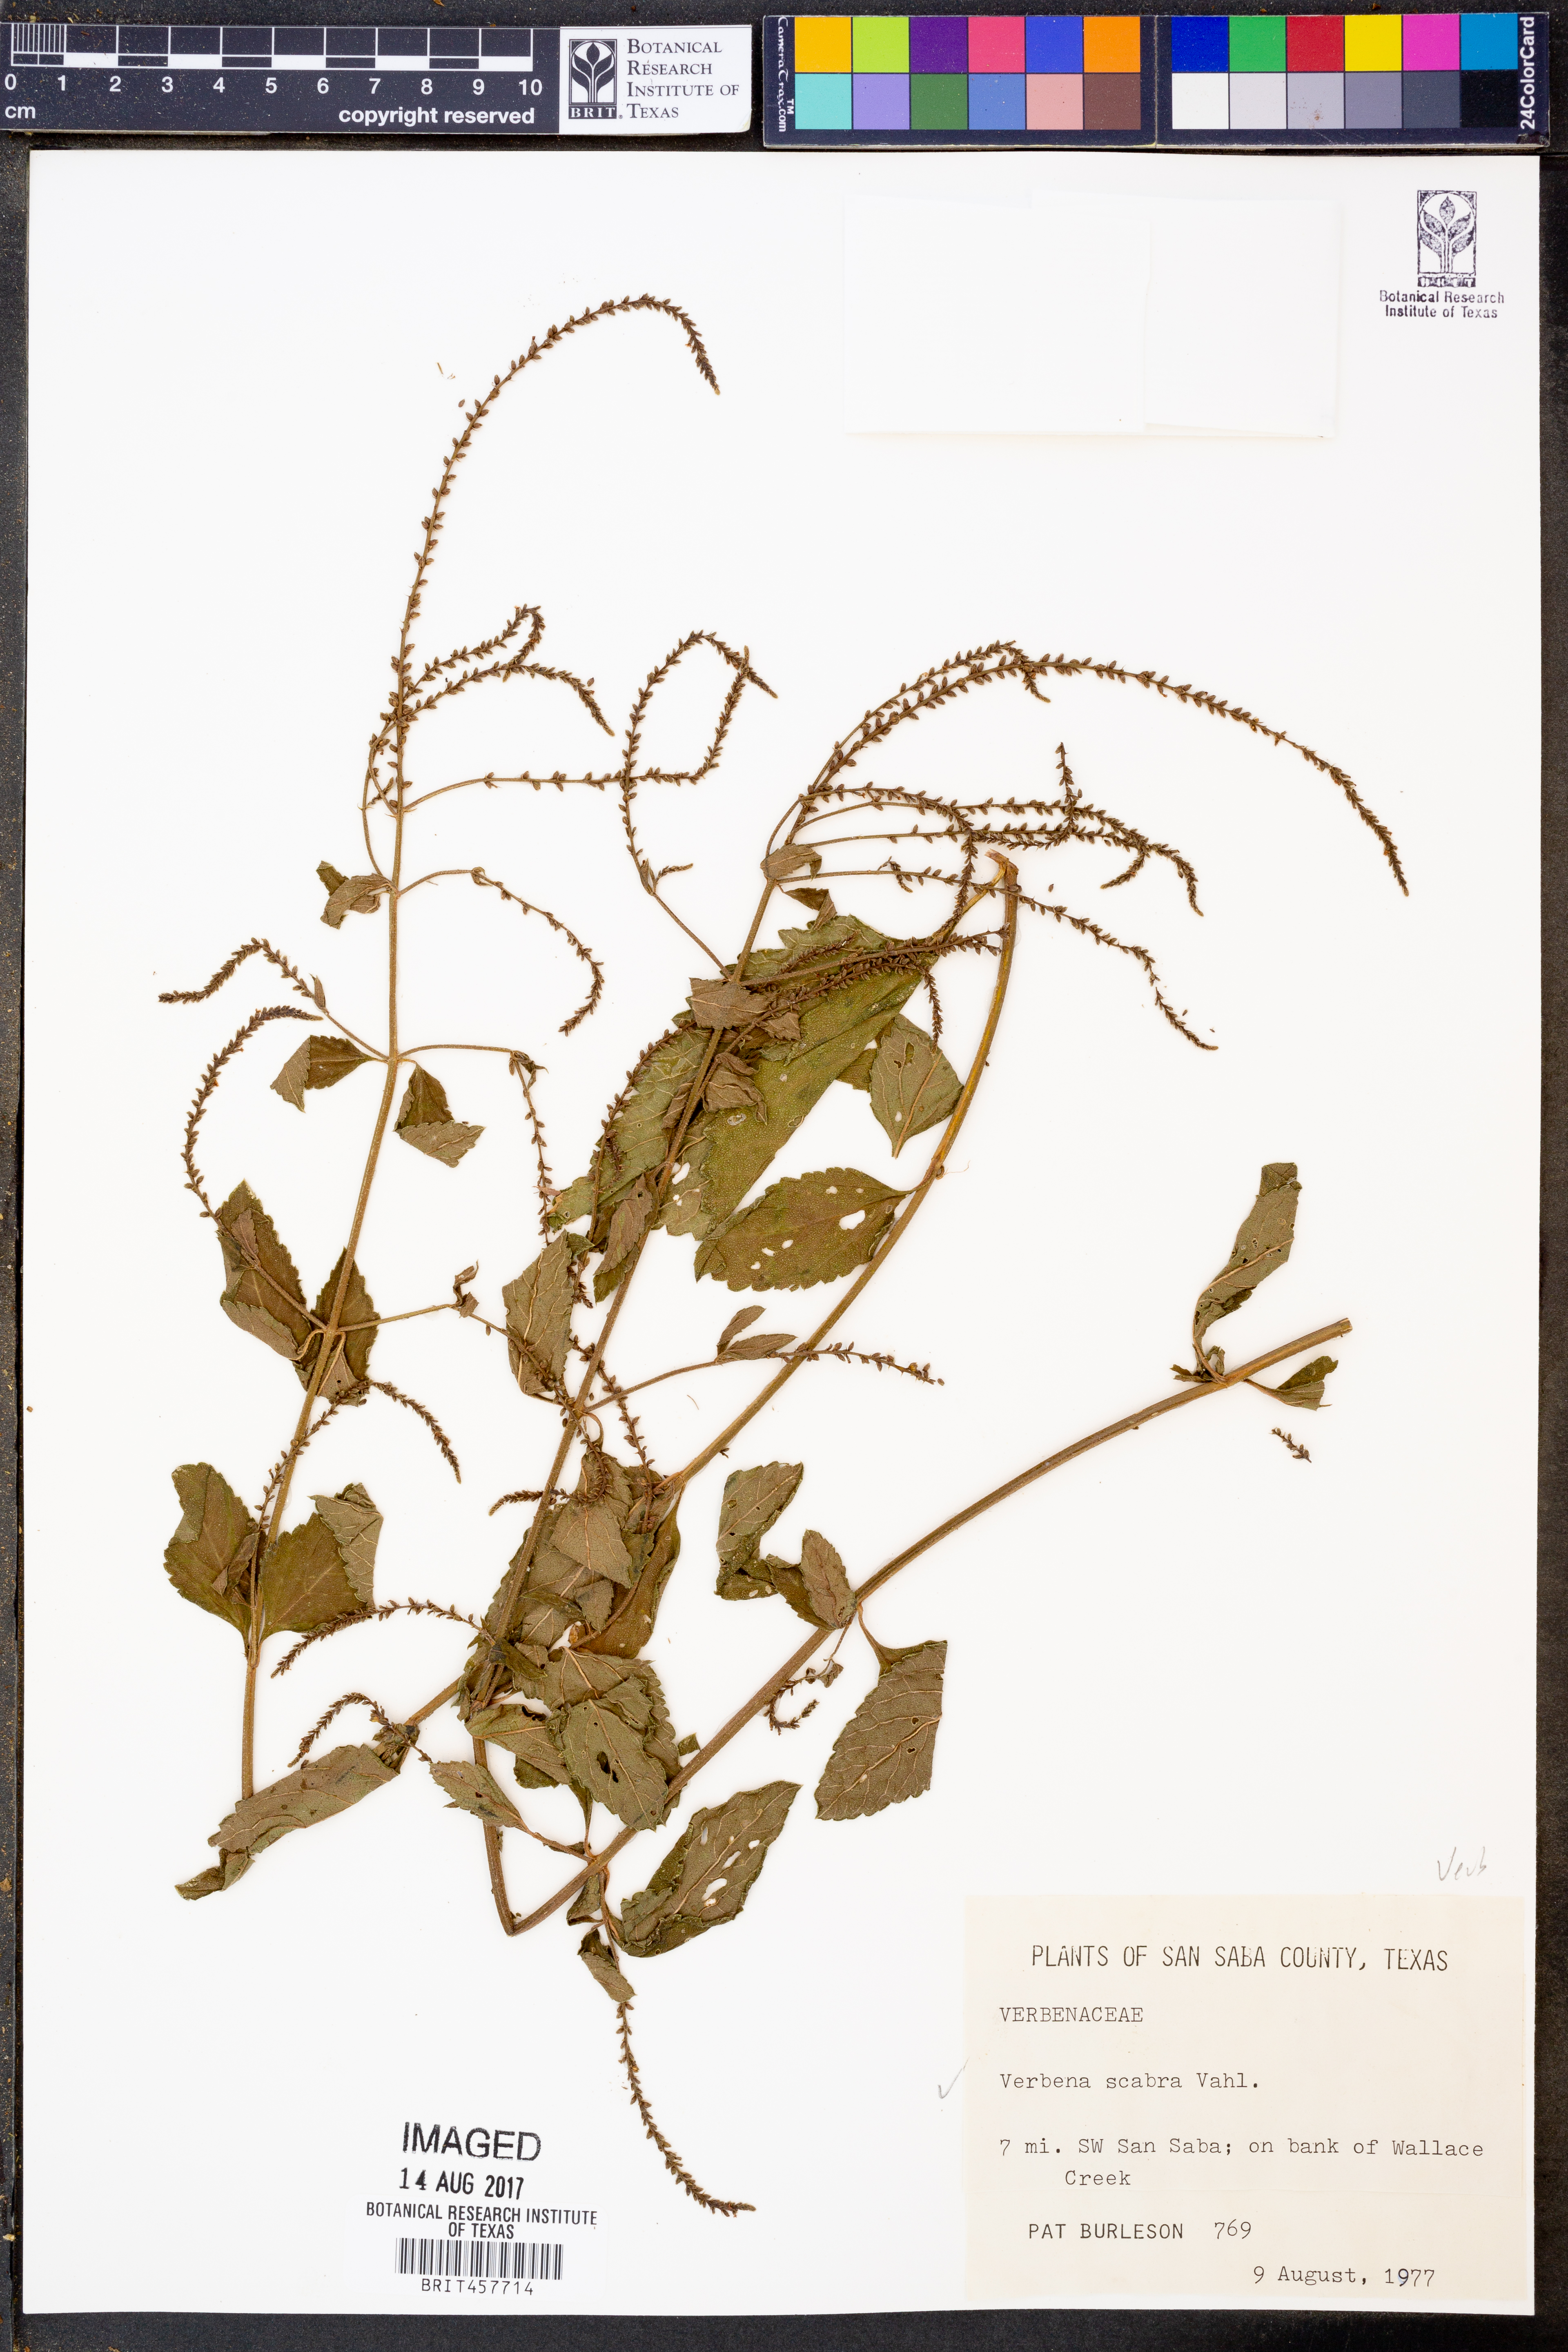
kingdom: Plantae
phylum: Tracheophyta
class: Magnoliopsida
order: Lamiales
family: Verbenaceae
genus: Verbena
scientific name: Verbena scabra
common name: Sandpaper vervain
